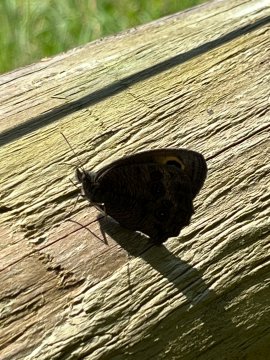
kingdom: Animalia
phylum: Arthropoda
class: Insecta
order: Lepidoptera
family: Nymphalidae
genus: Cercyonis
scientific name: Cercyonis pegala
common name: Common Wood-Nymph
